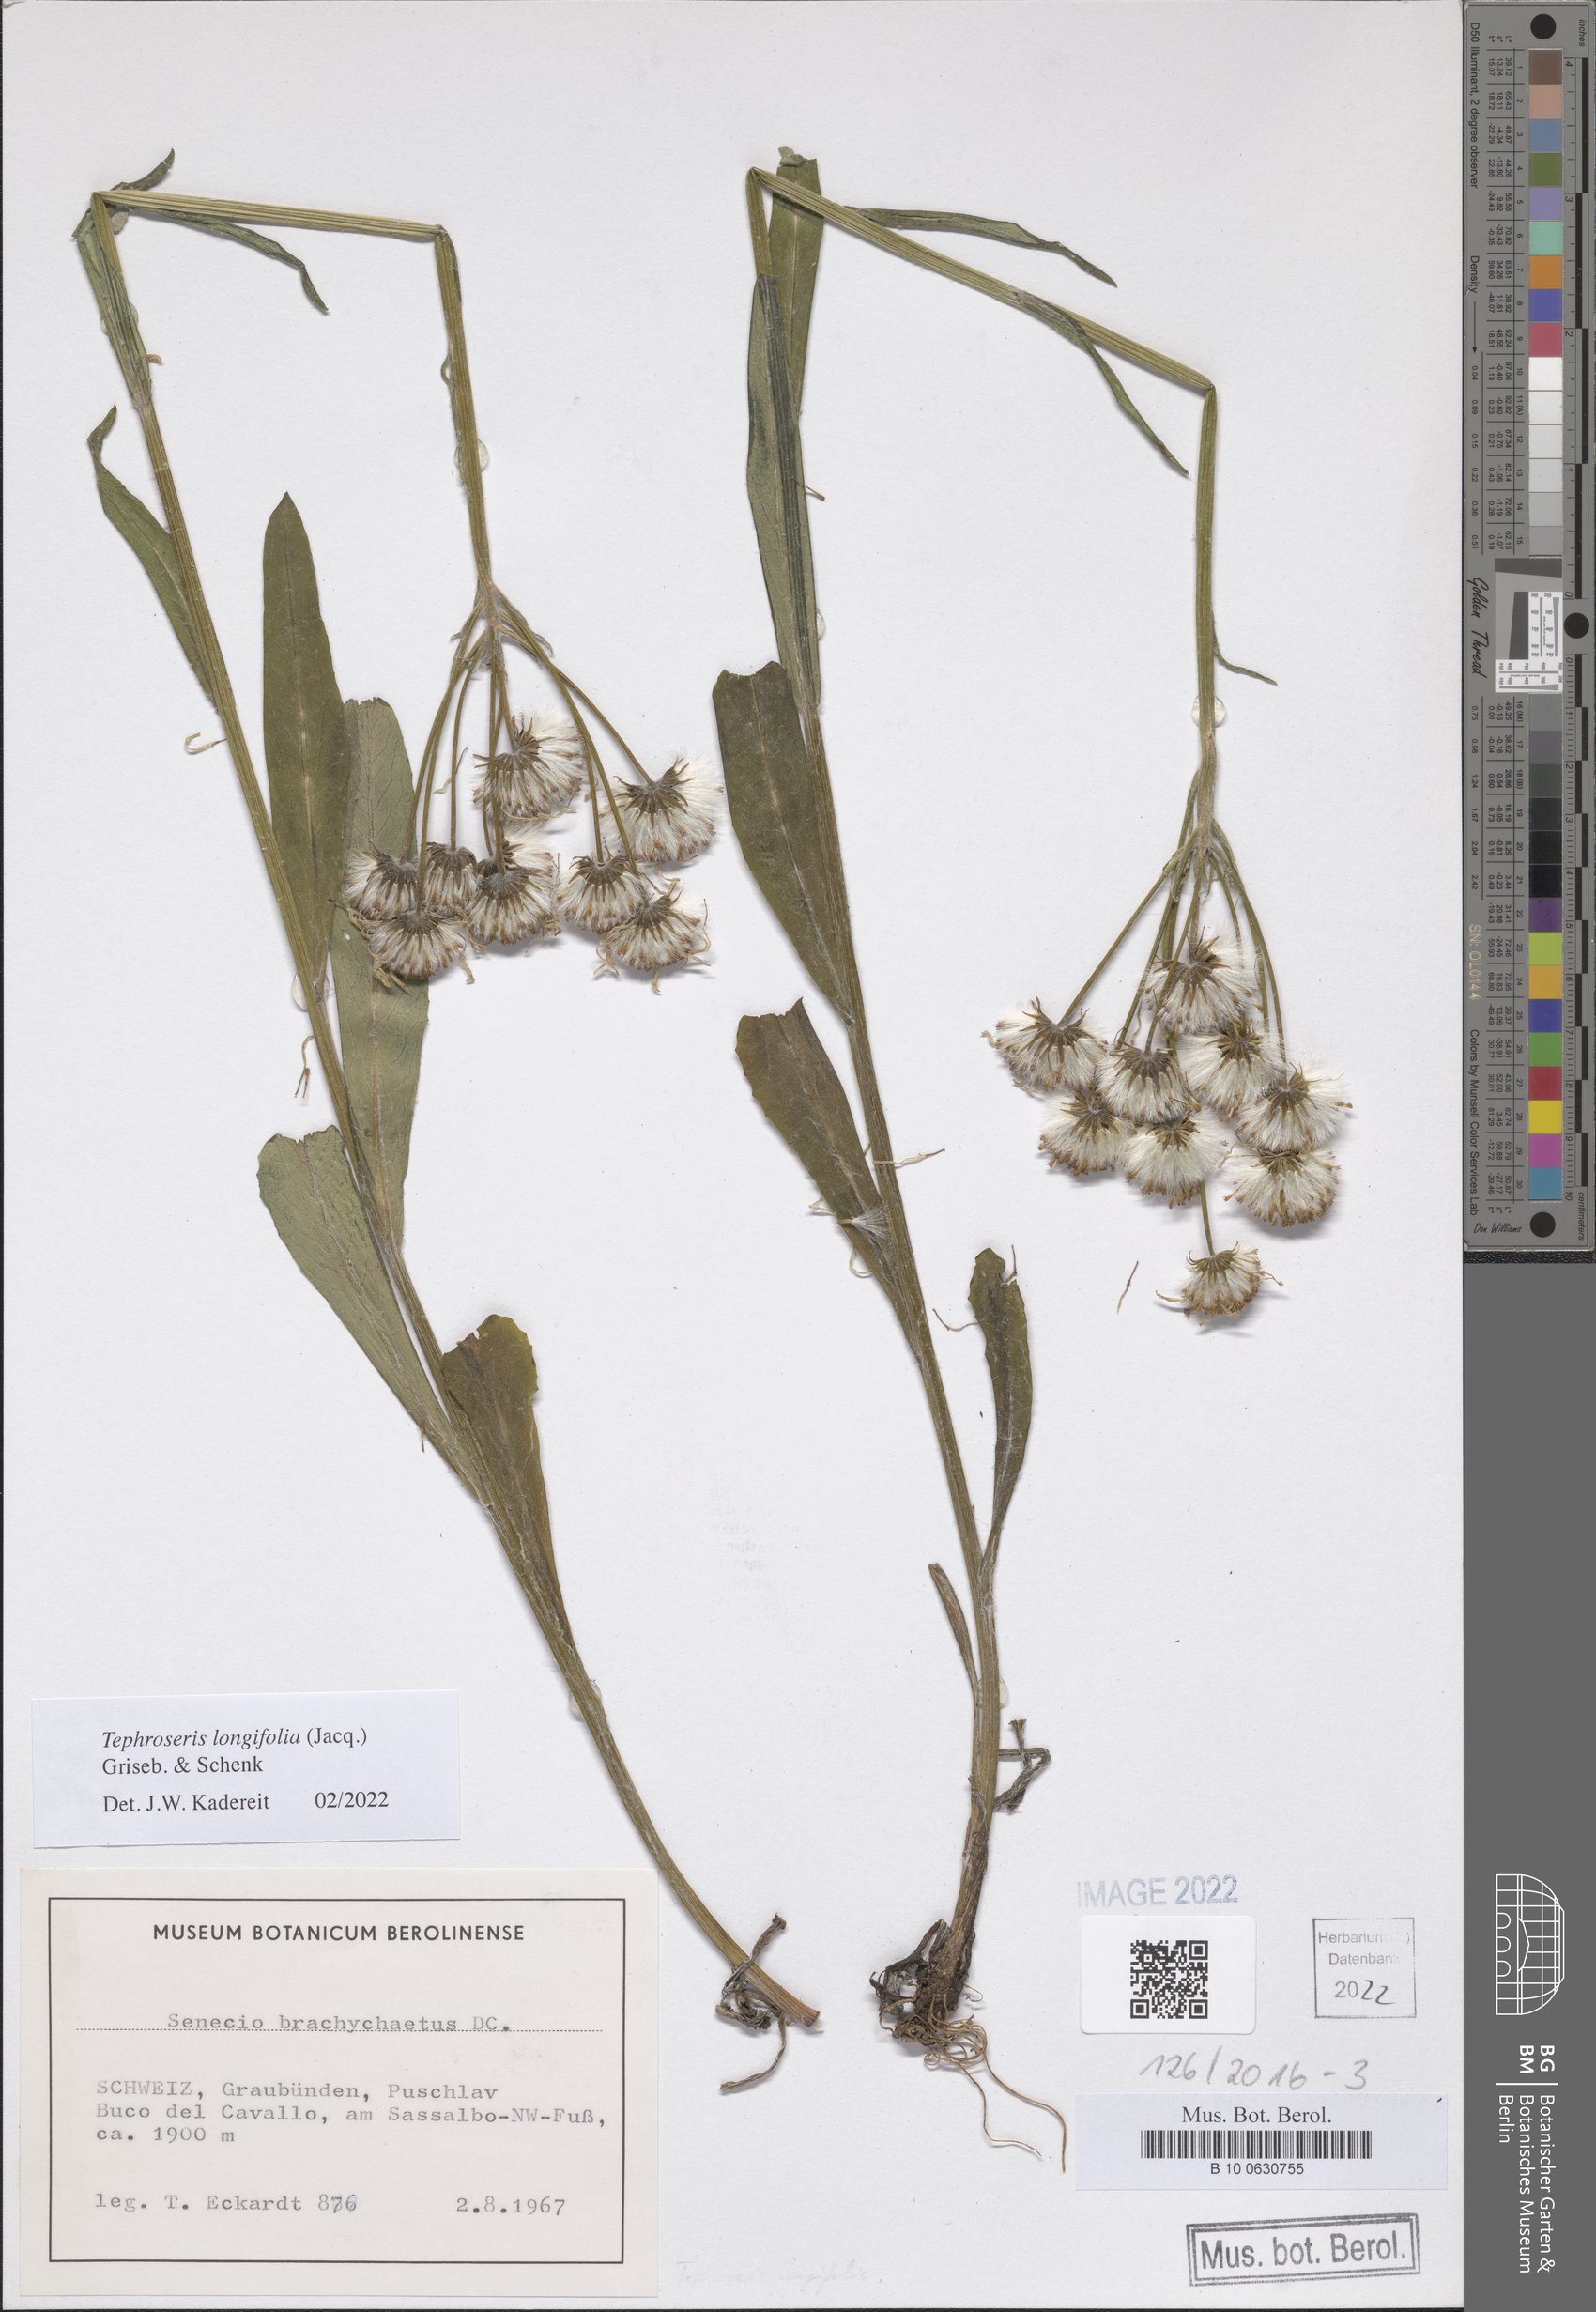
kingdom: Plantae
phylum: Tracheophyta
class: Magnoliopsida
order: Asterales
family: Asteraceae
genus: Tephroseris
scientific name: Tephroseris longifolia
